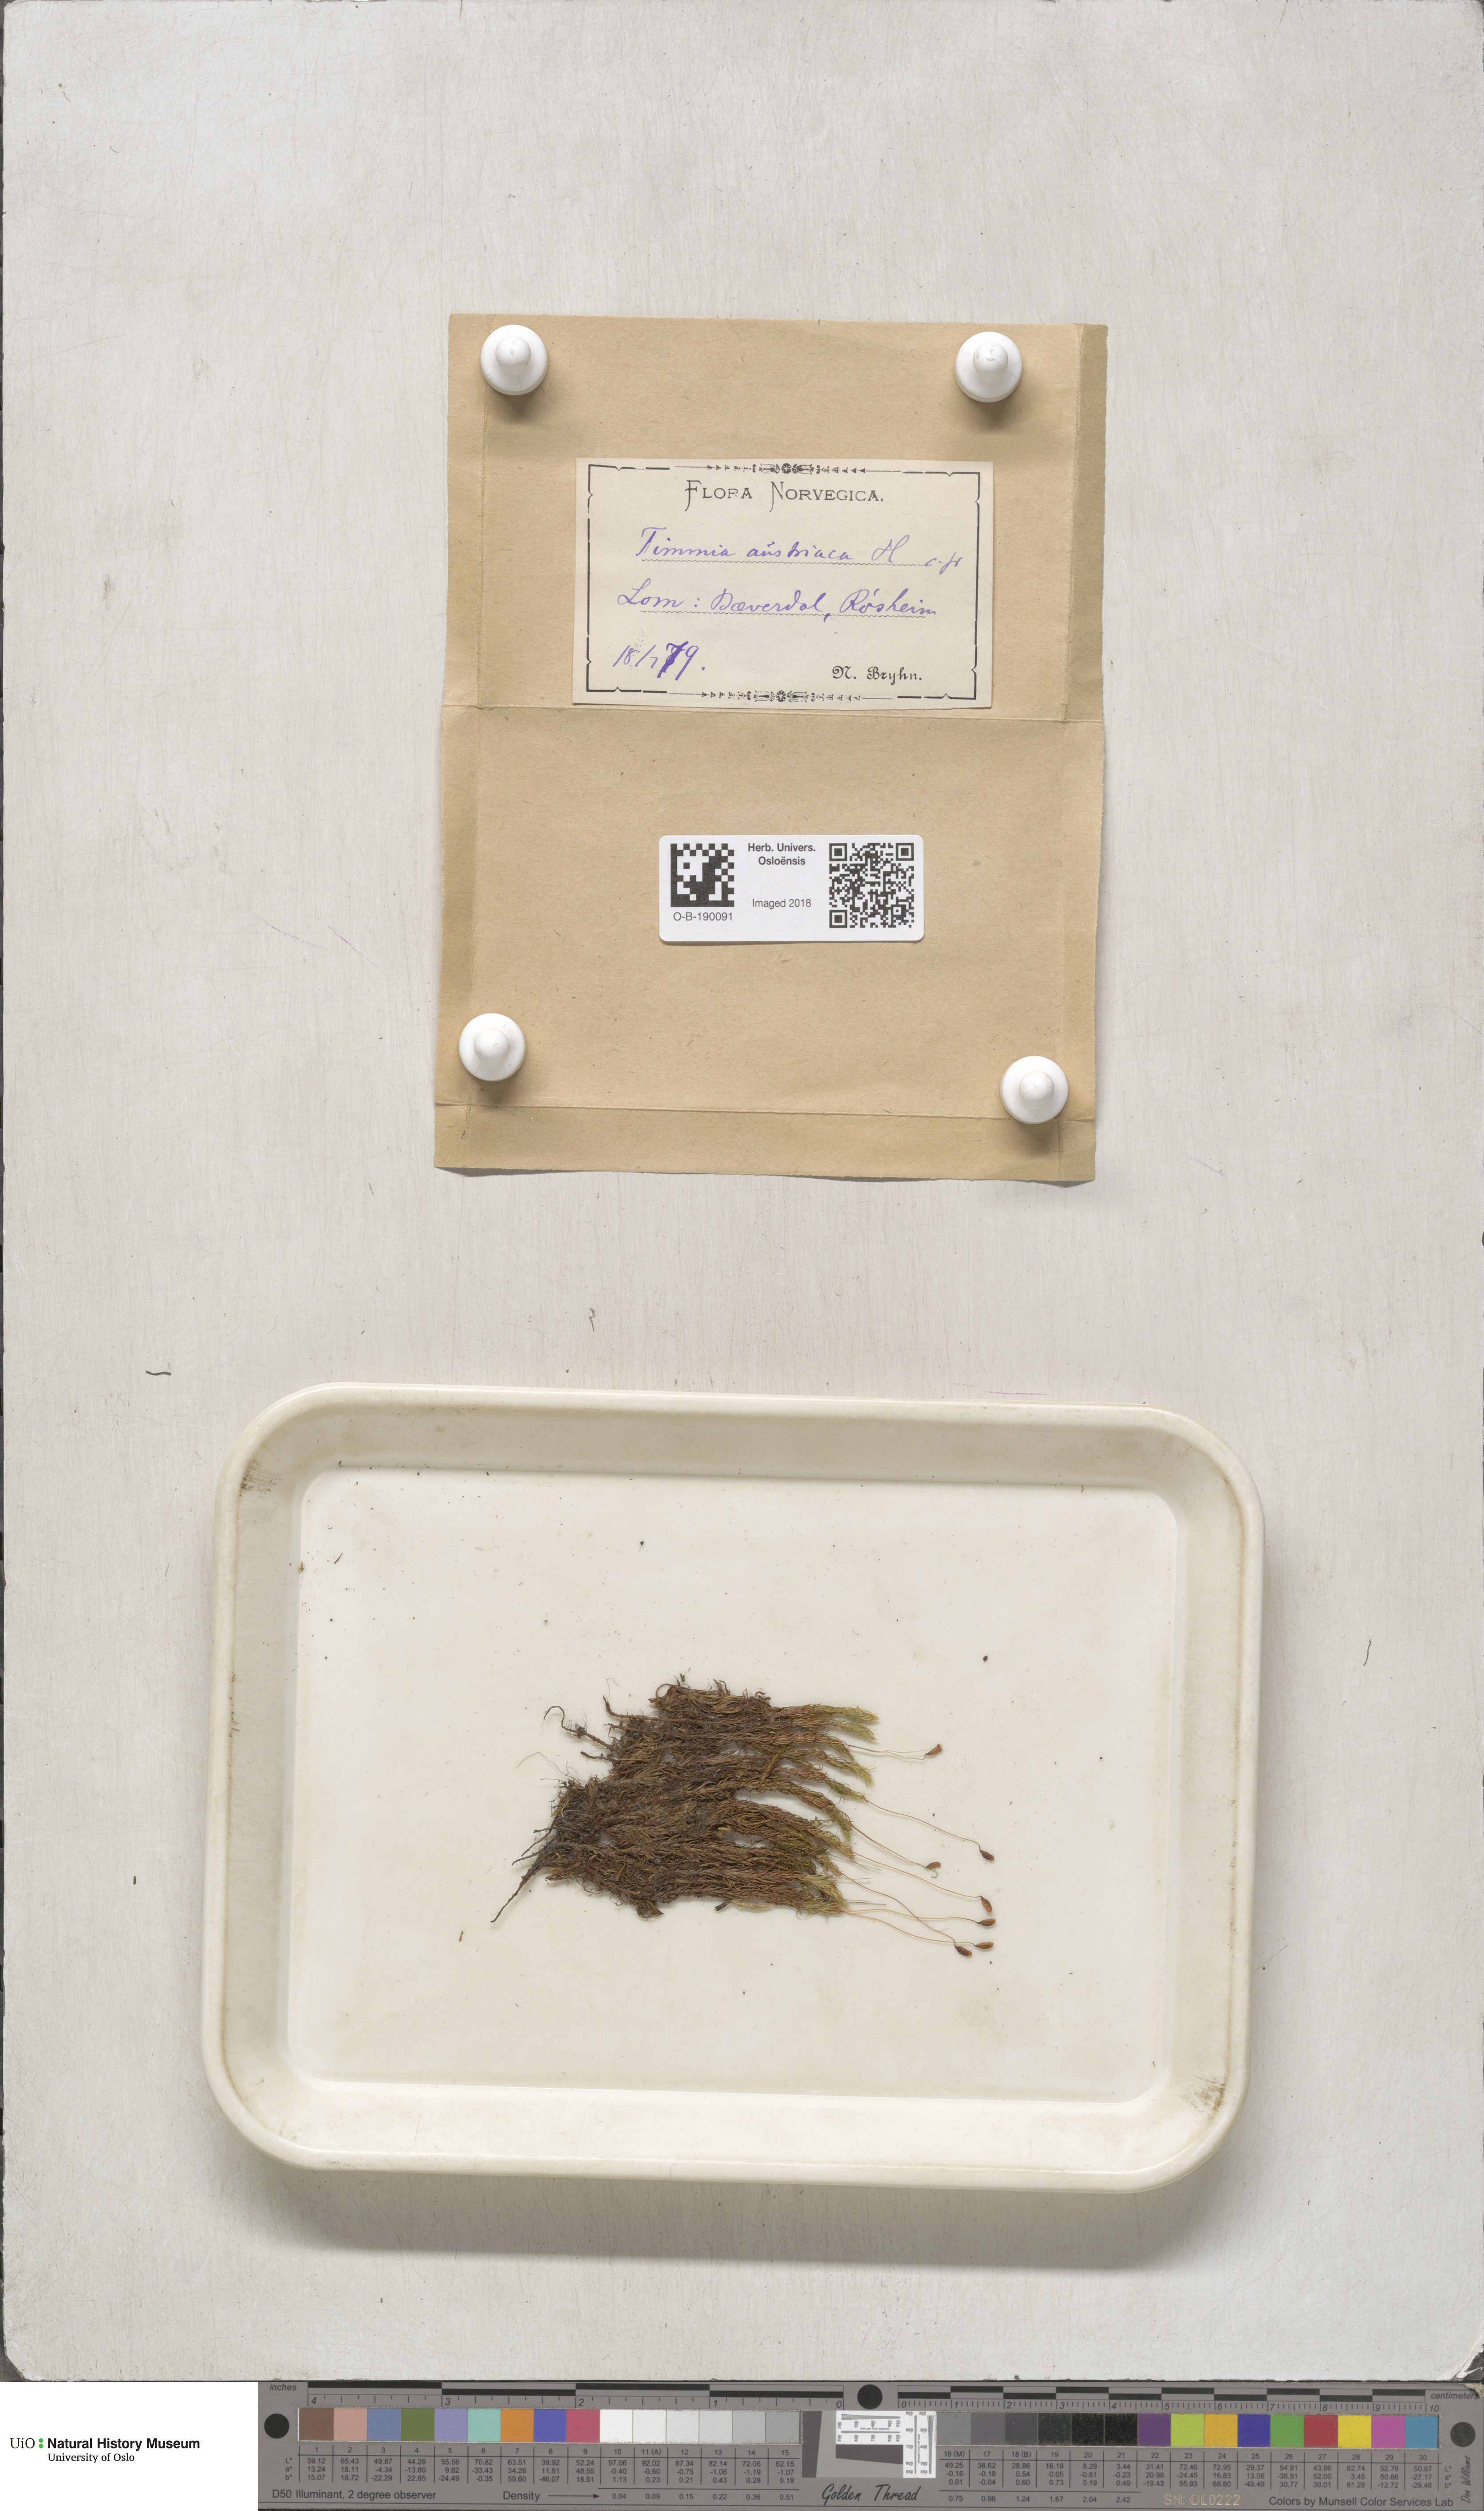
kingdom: Plantae
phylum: Bryophyta
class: Bryopsida
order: Timmiales
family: Timmiaceae
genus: Timmia
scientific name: Timmia austriaca
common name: Austrian timmia
